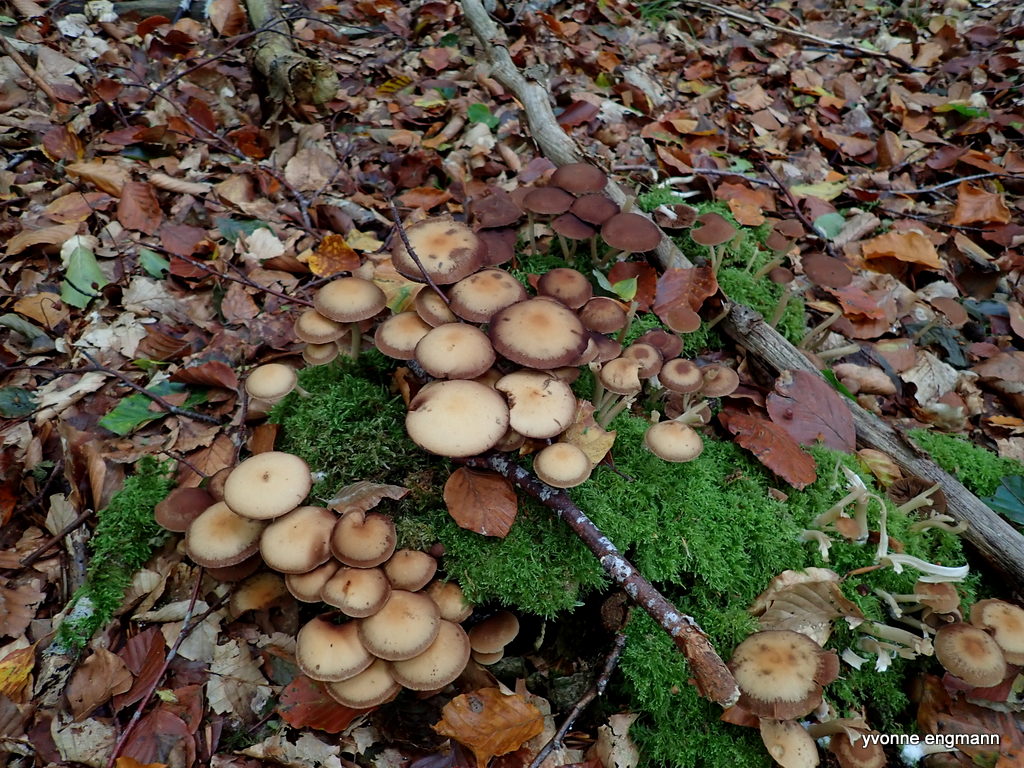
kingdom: Fungi
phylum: Basidiomycota
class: Agaricomycetes
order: Agaricales
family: Strophariaceae
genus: Kuehneromyces
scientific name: Kuehneromyces mutabilis
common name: foranderlig skælhat
